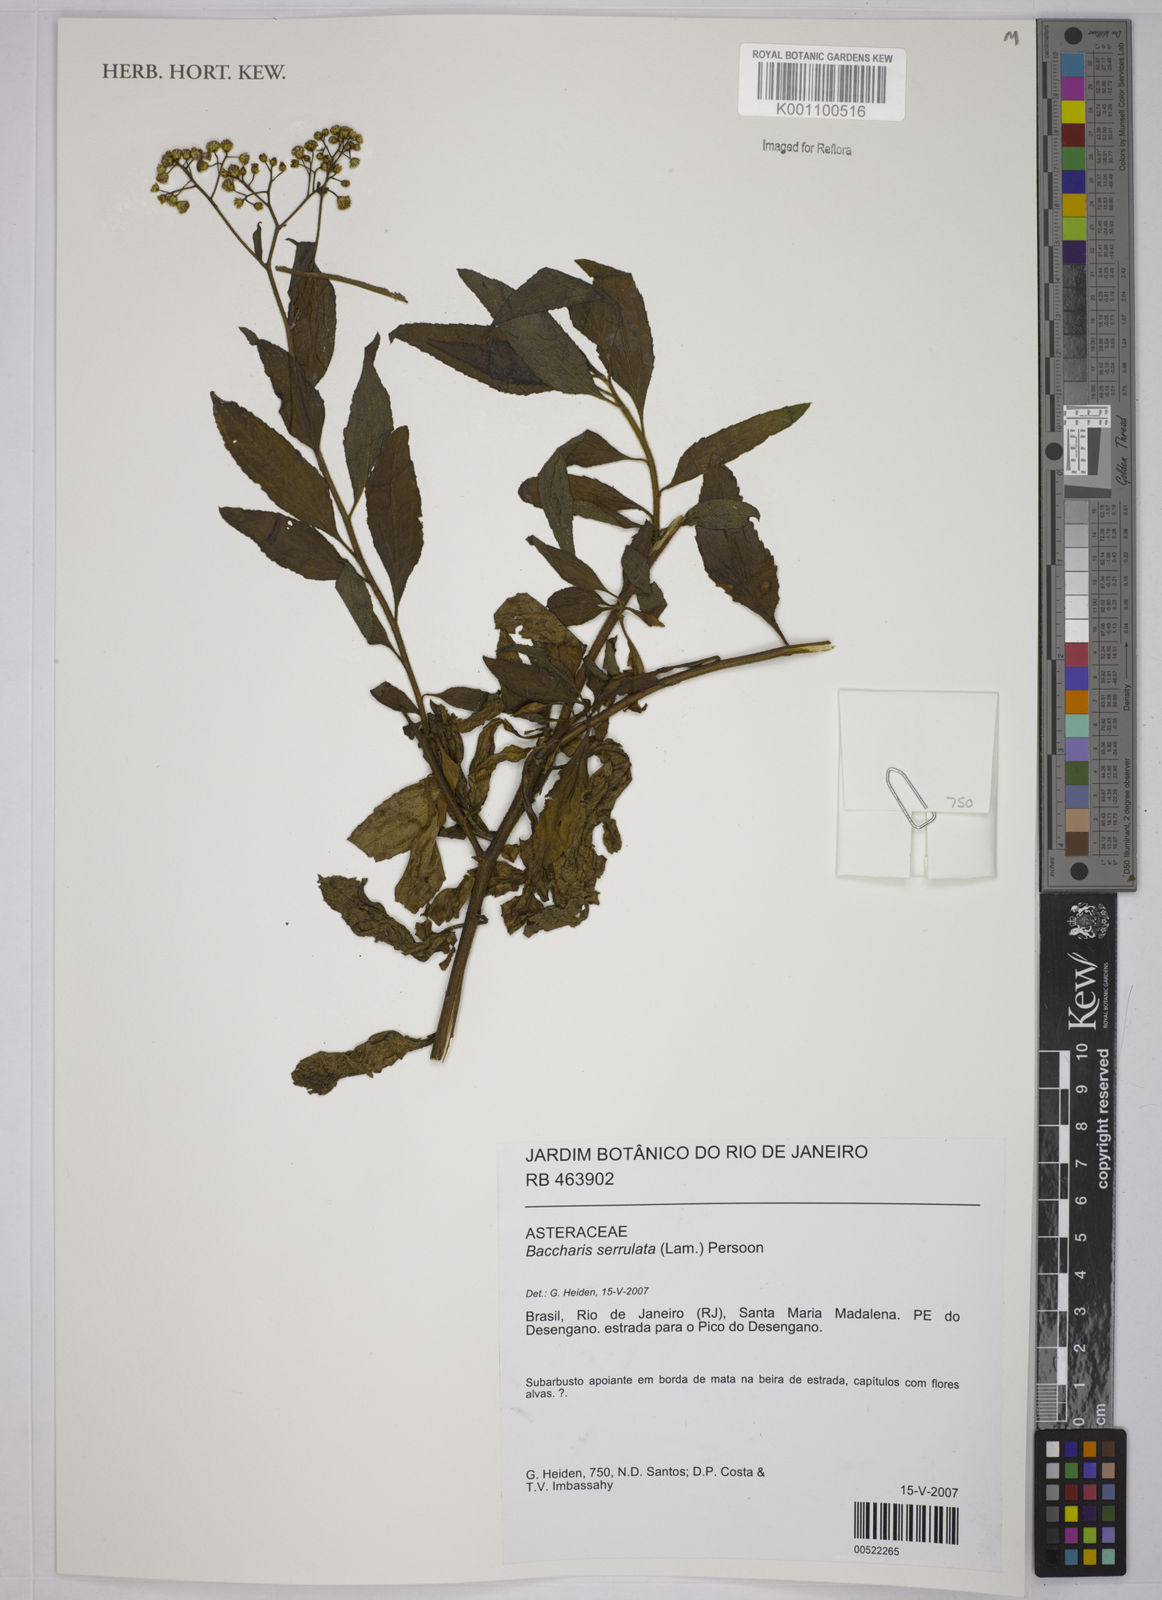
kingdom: Plantae
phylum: Tracheophyta
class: Magnoliopsida
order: Asterales
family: Asteraceae
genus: Baccharis
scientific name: Baccharis serrulata
